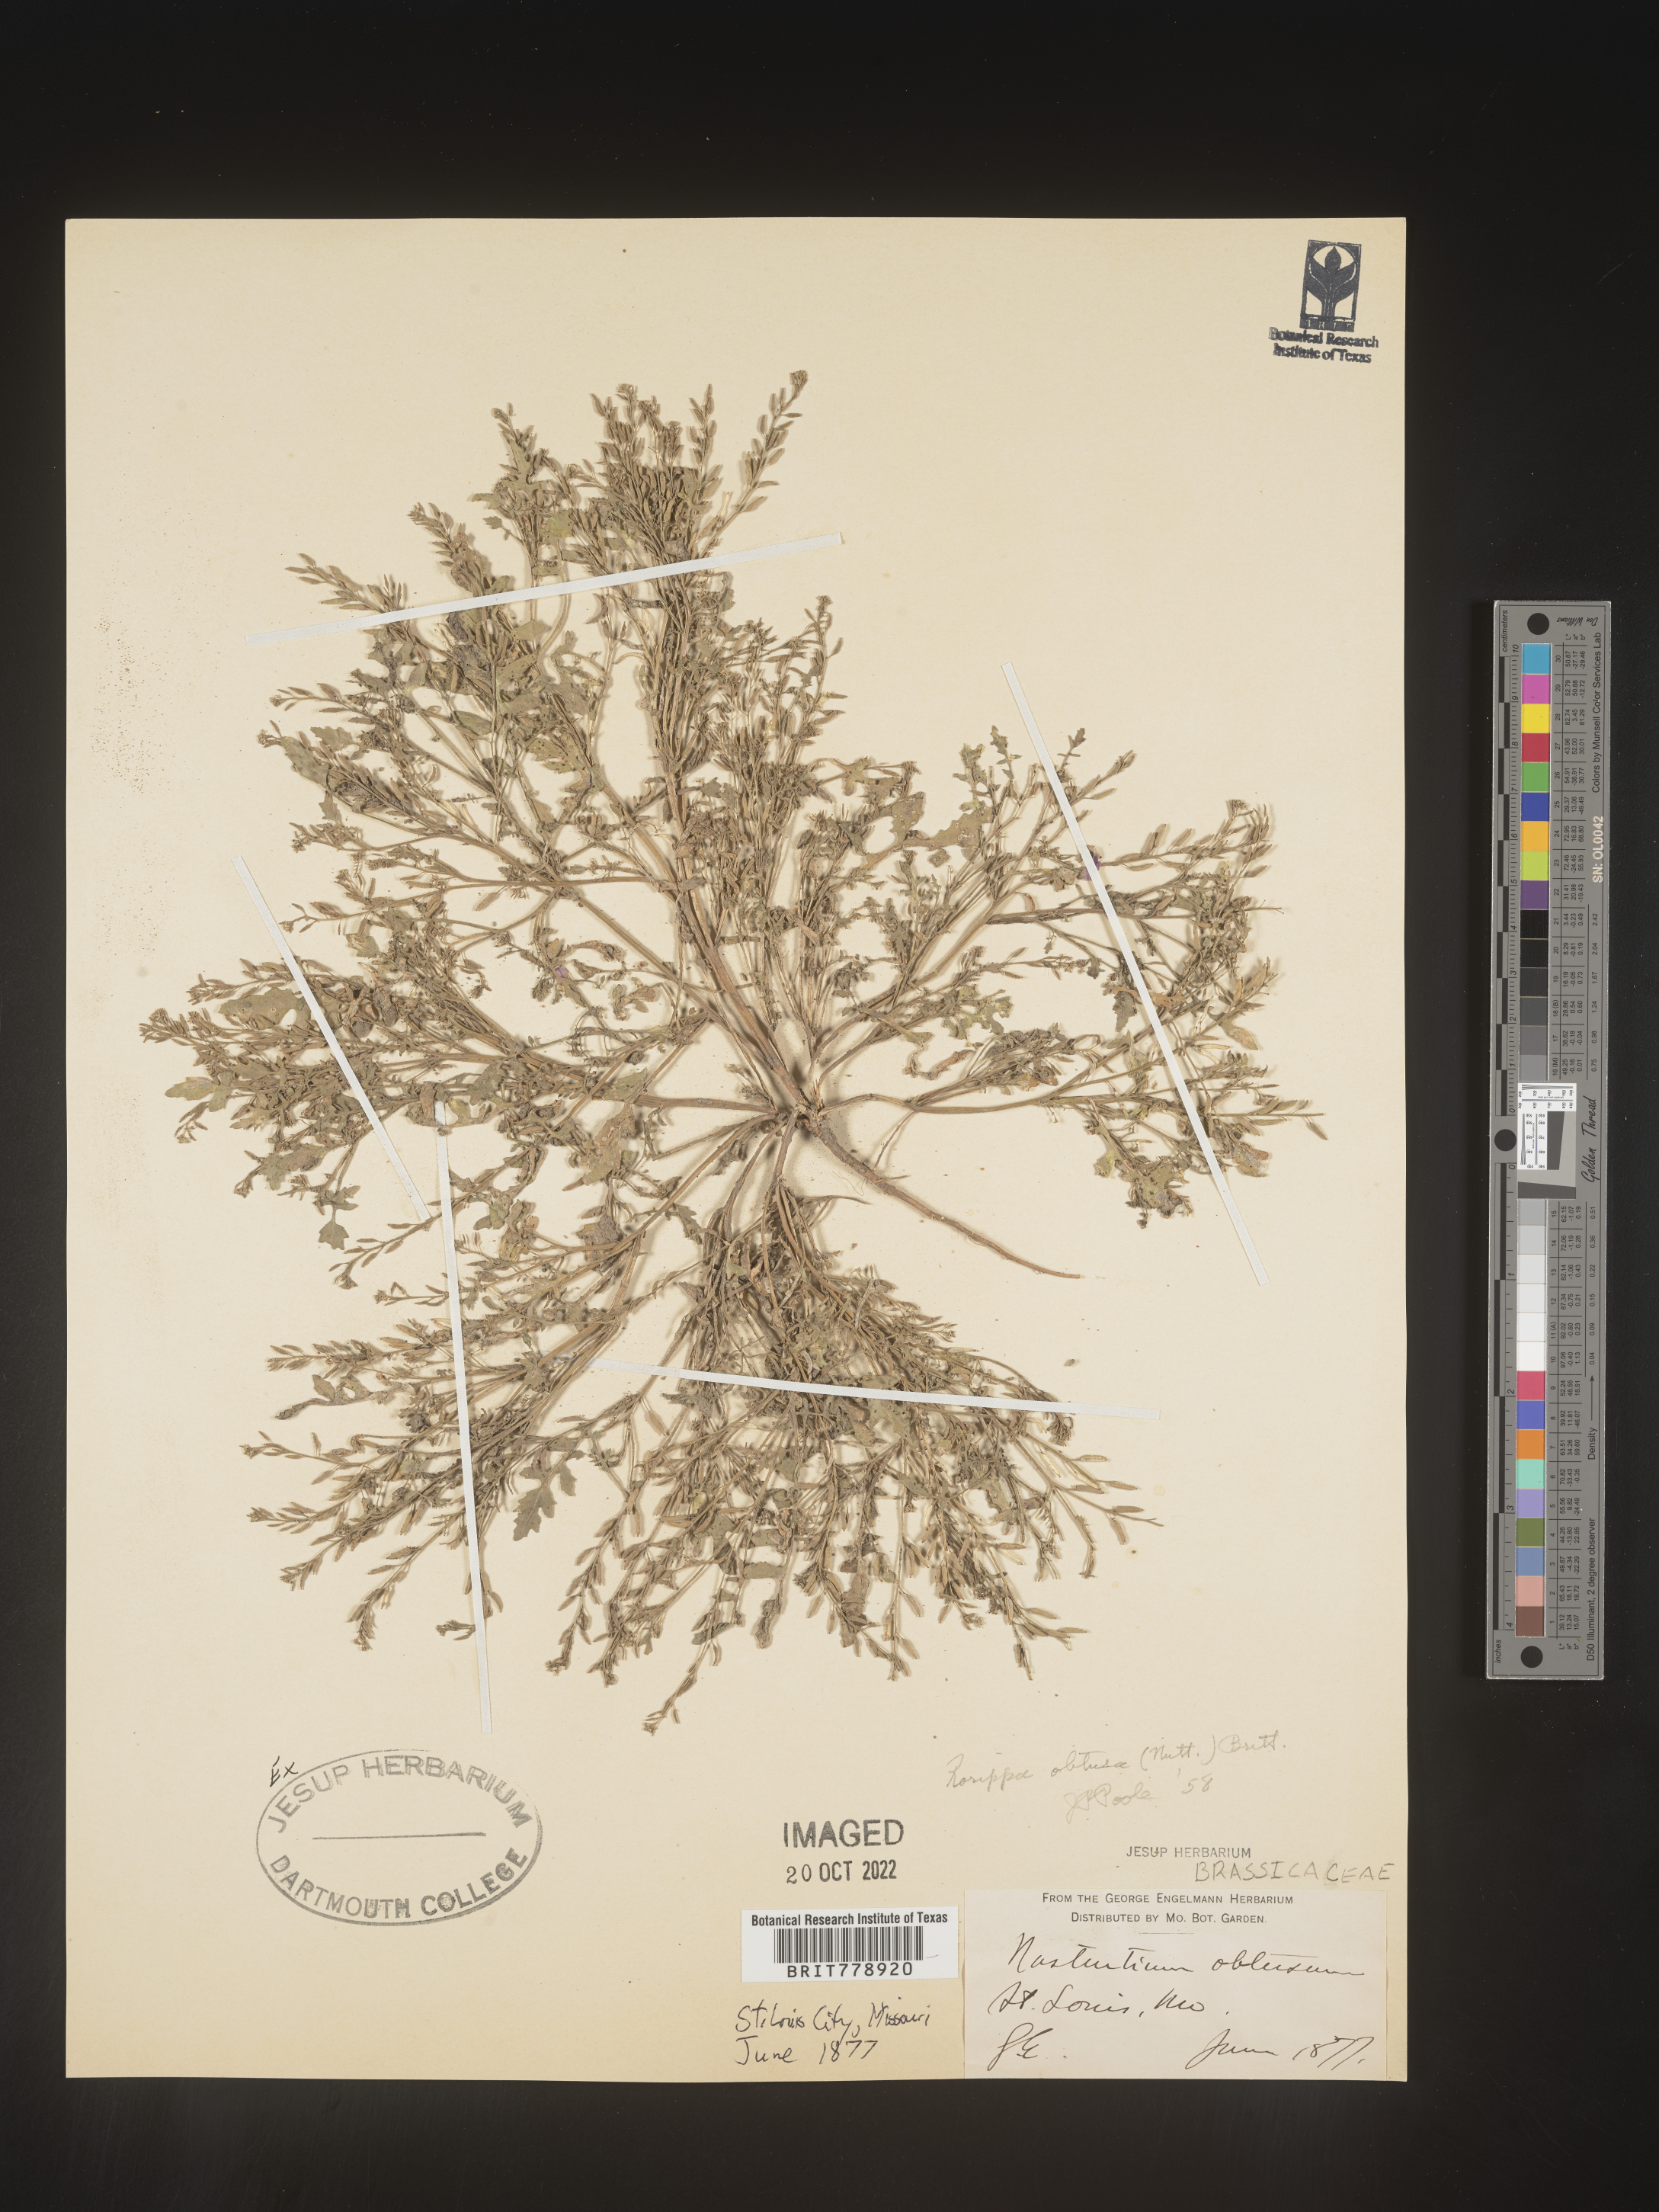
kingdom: Plantae
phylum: Tracheophyta
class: Magnoliopsida
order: Brassicales
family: Brassicaceae
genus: Rorippa
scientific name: Rorippa teres
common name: Southern marsh yellowcress
